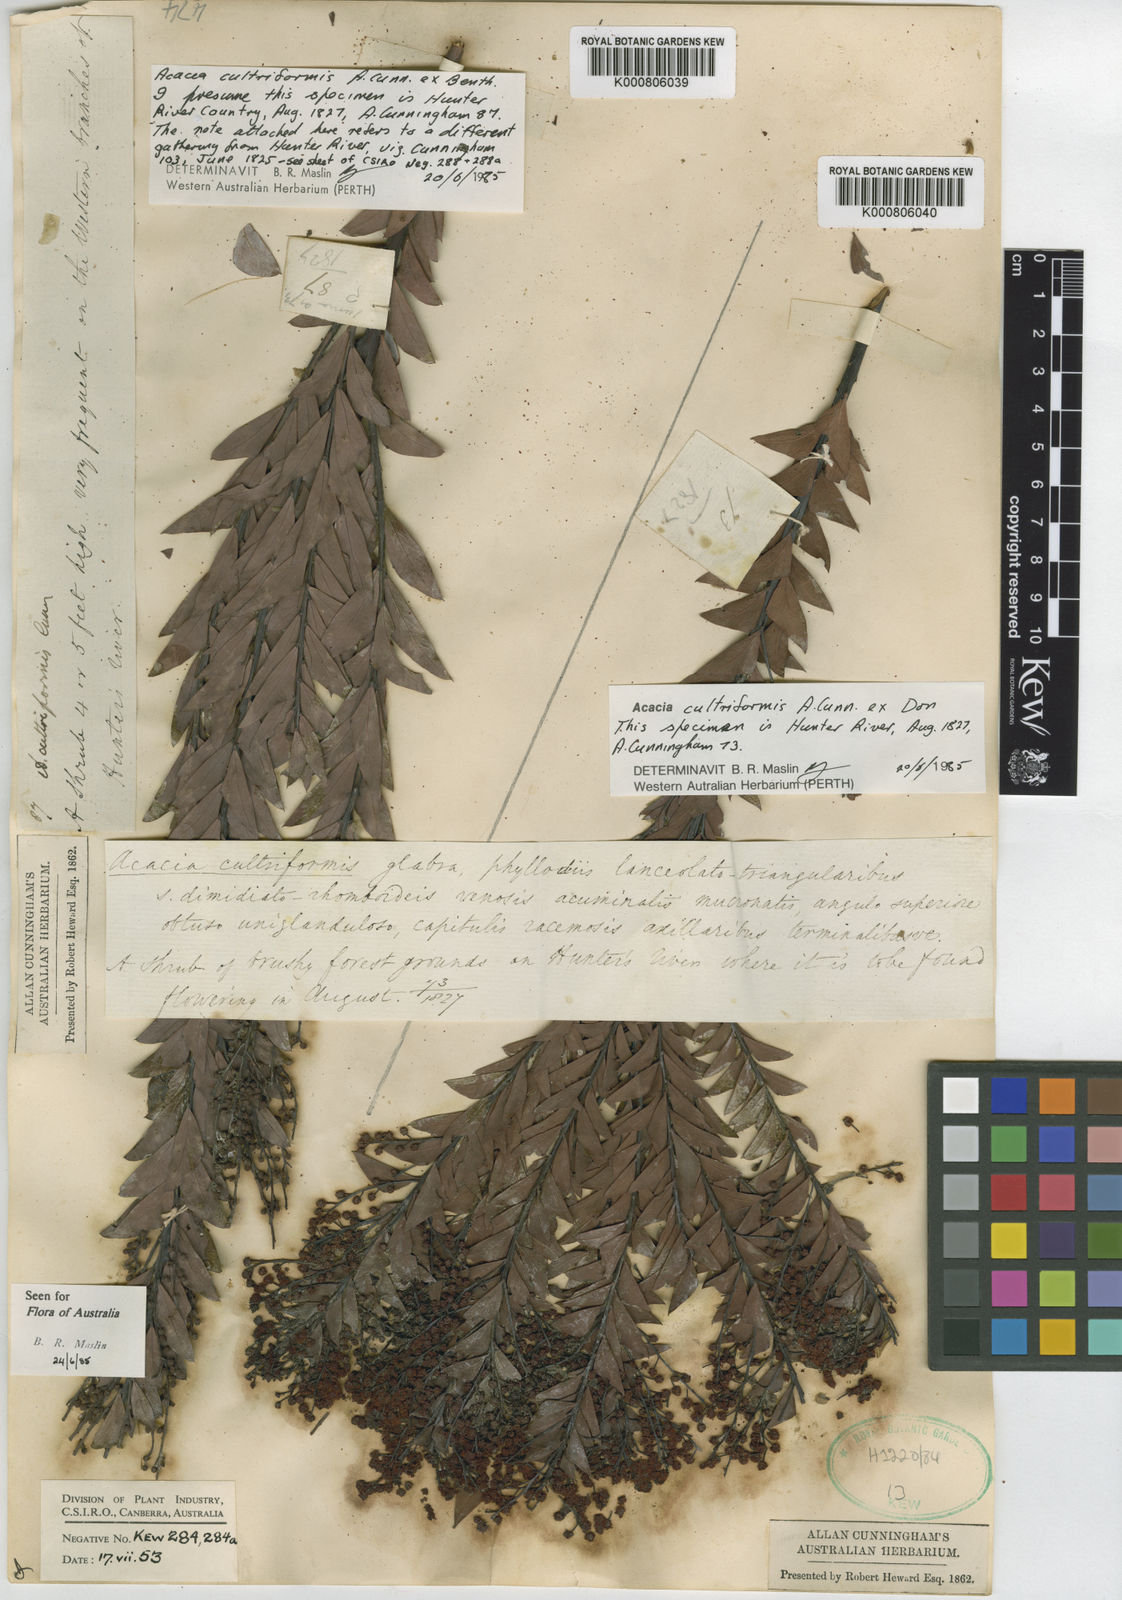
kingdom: Plantae
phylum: Tracheophyta
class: Magnoliopsida
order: Fabales
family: Fabaceae
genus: Acacia
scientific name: Acacia cultriformis
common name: Knife acacia
